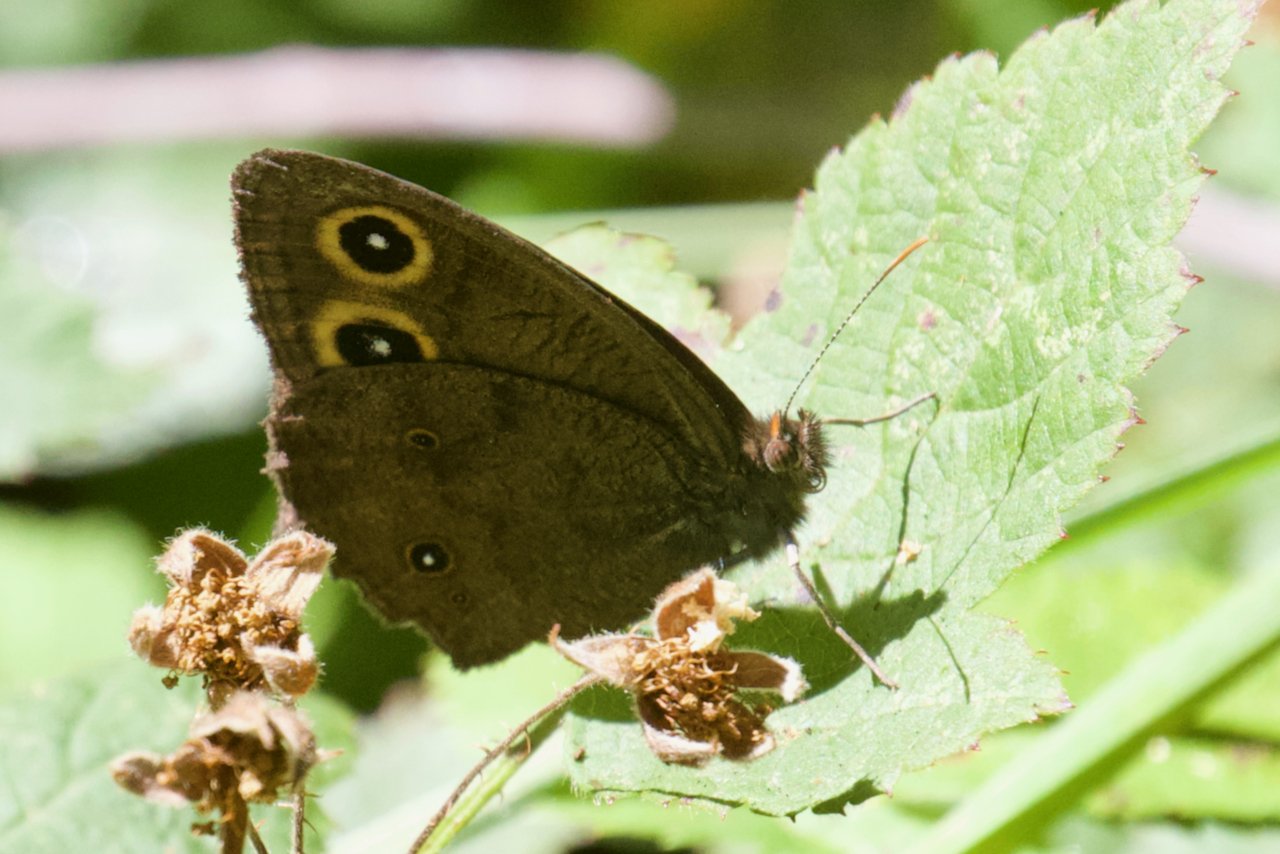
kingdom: Animalia
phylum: Arthropoda
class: Insecta
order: Lepidoptera
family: Nymphalidae
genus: Cercyonis
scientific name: Cercyonis pegala
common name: Common Wood-Nymph
